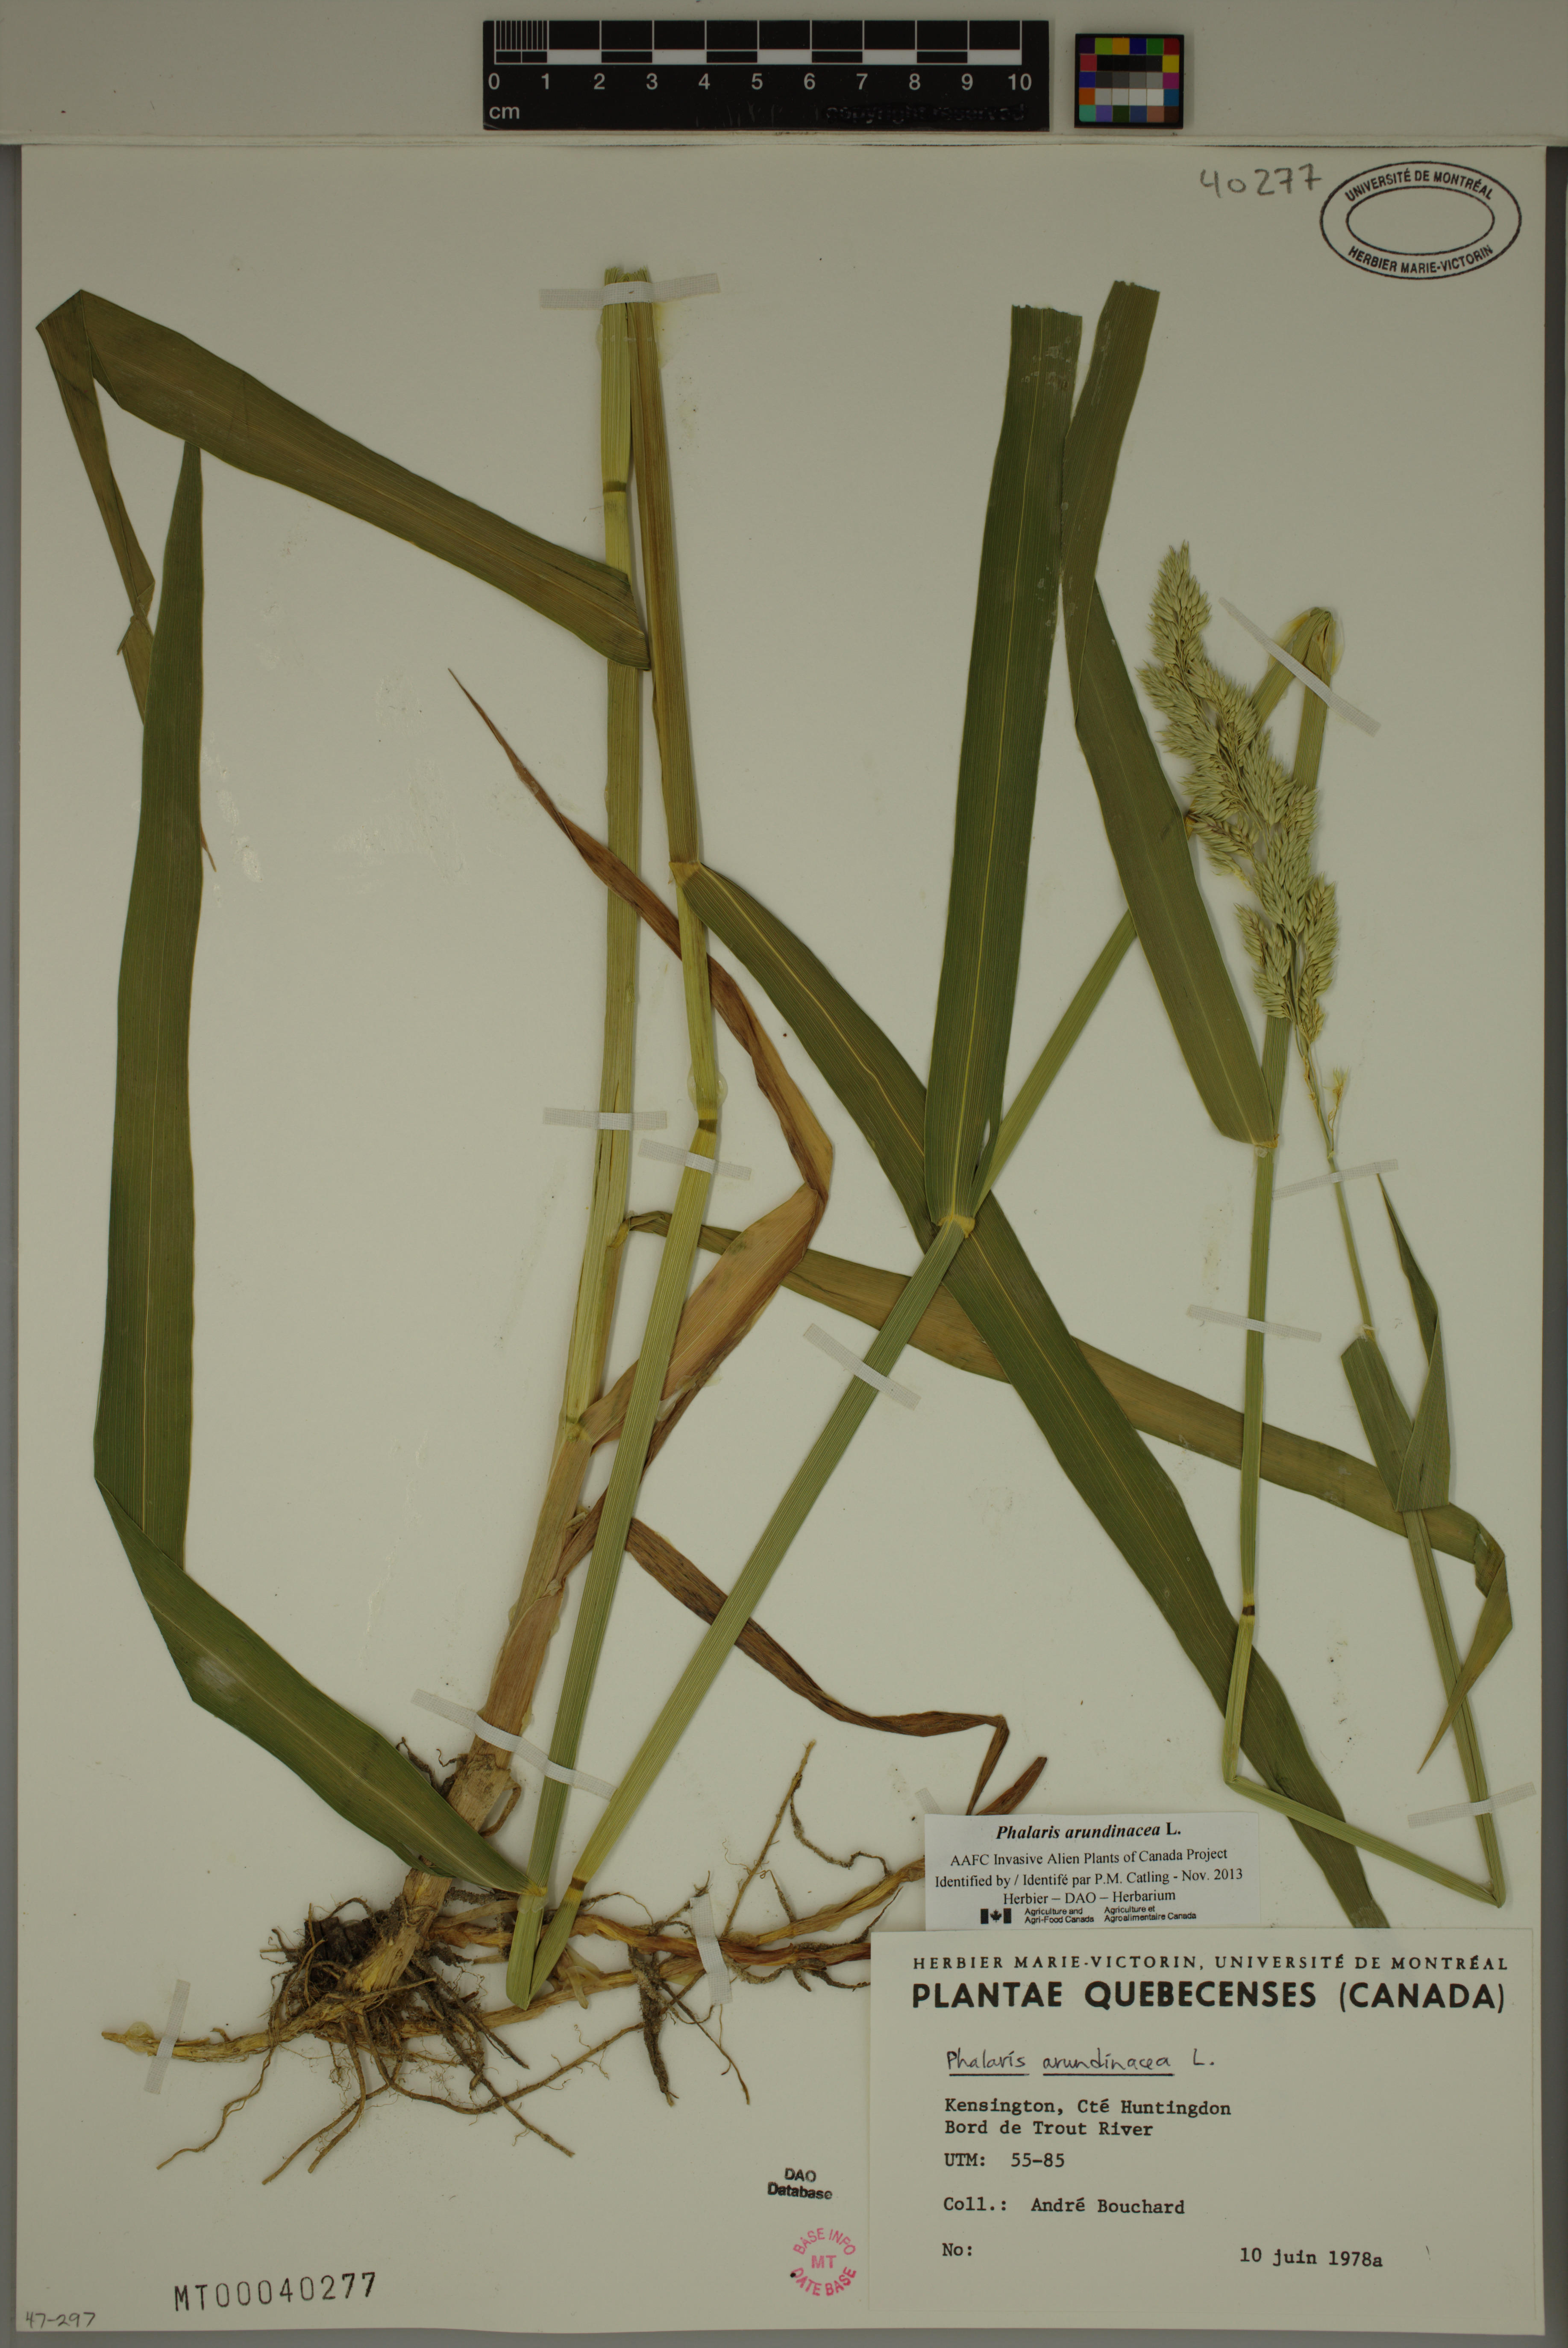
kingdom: Plantae
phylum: Tracheophyta
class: Liliopsida
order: Poales
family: Poaceae
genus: Phalaris
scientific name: Phalaris arundinacea
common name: Reed canary-grass
